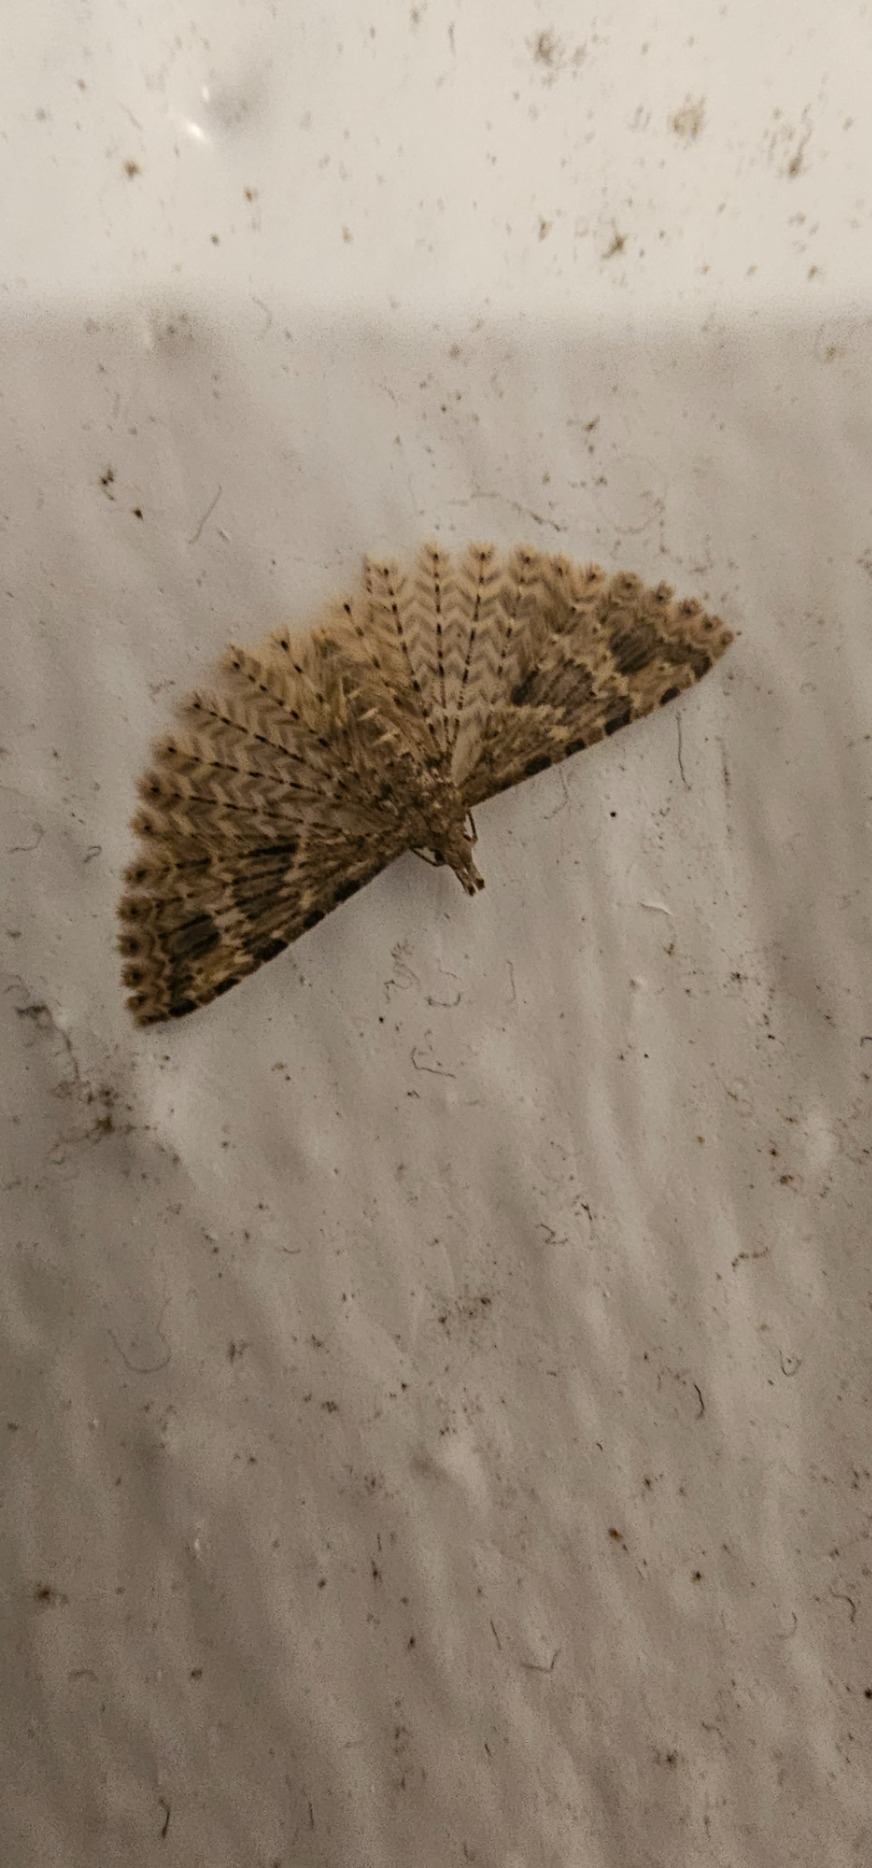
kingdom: Animalia
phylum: Arthropoda
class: Insecta
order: Lepidoptera
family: Alucitidae
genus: Alucita
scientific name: Alucita hexadactyla
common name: Kaprifoliefjermøl
